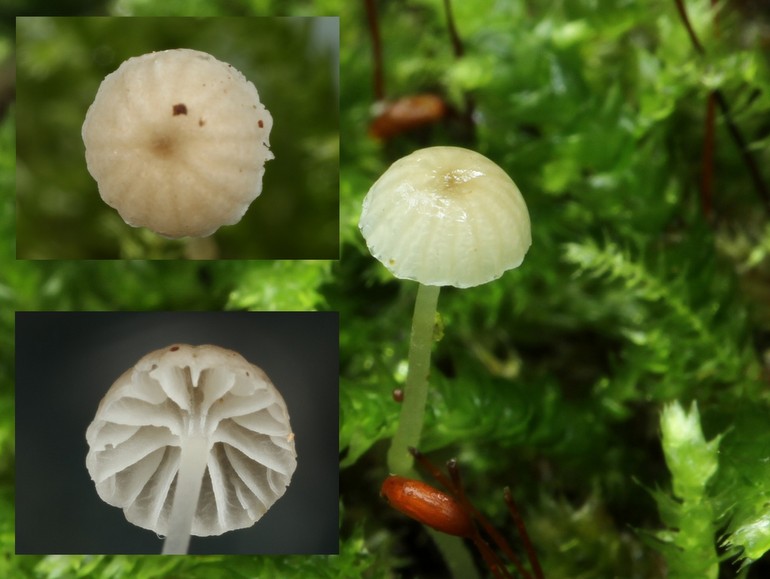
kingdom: Fungi
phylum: Basidiomycota
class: Agaricomycetes
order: Agaricales
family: Porotheleaceae
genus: Phloeomana
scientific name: Phloeomana speirea
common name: kvist-huesvamp
